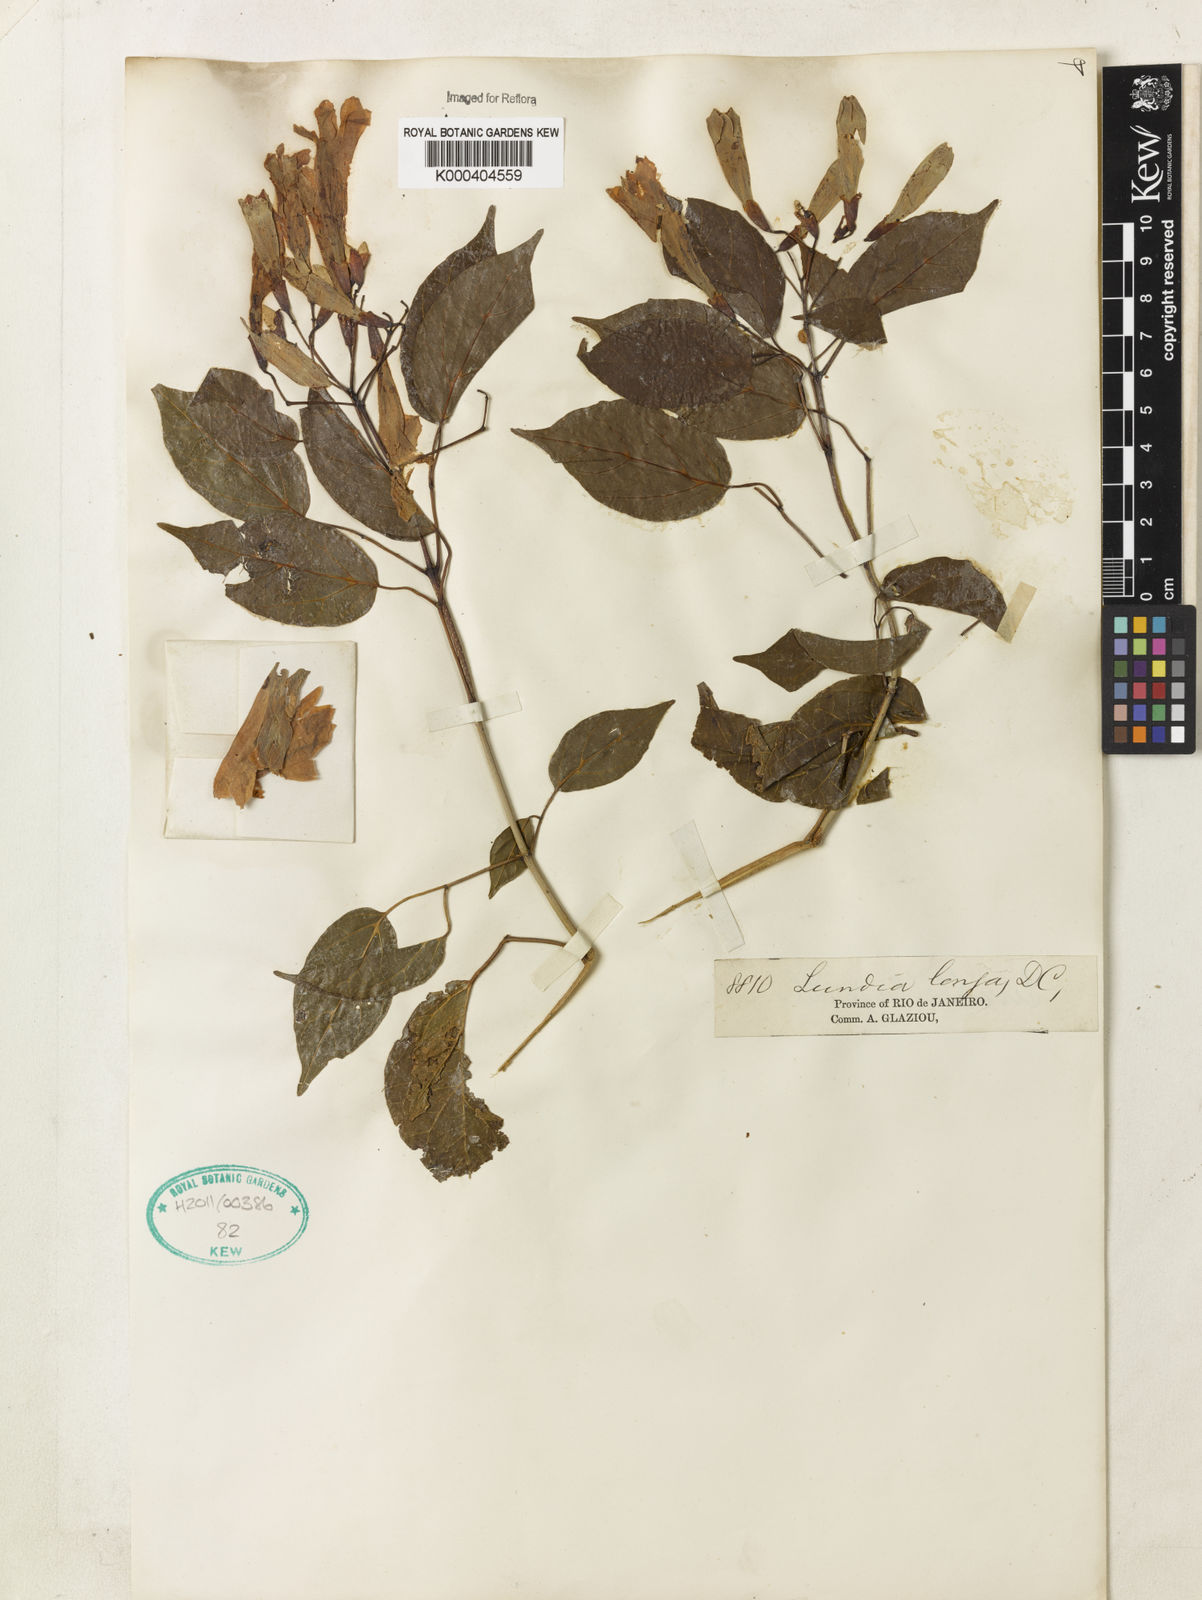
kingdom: Plantae
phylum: Tracheophyta
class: Magnoliopsida
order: Lamiales
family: Bignoniaceae
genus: Lundia
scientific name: Lundia longa
